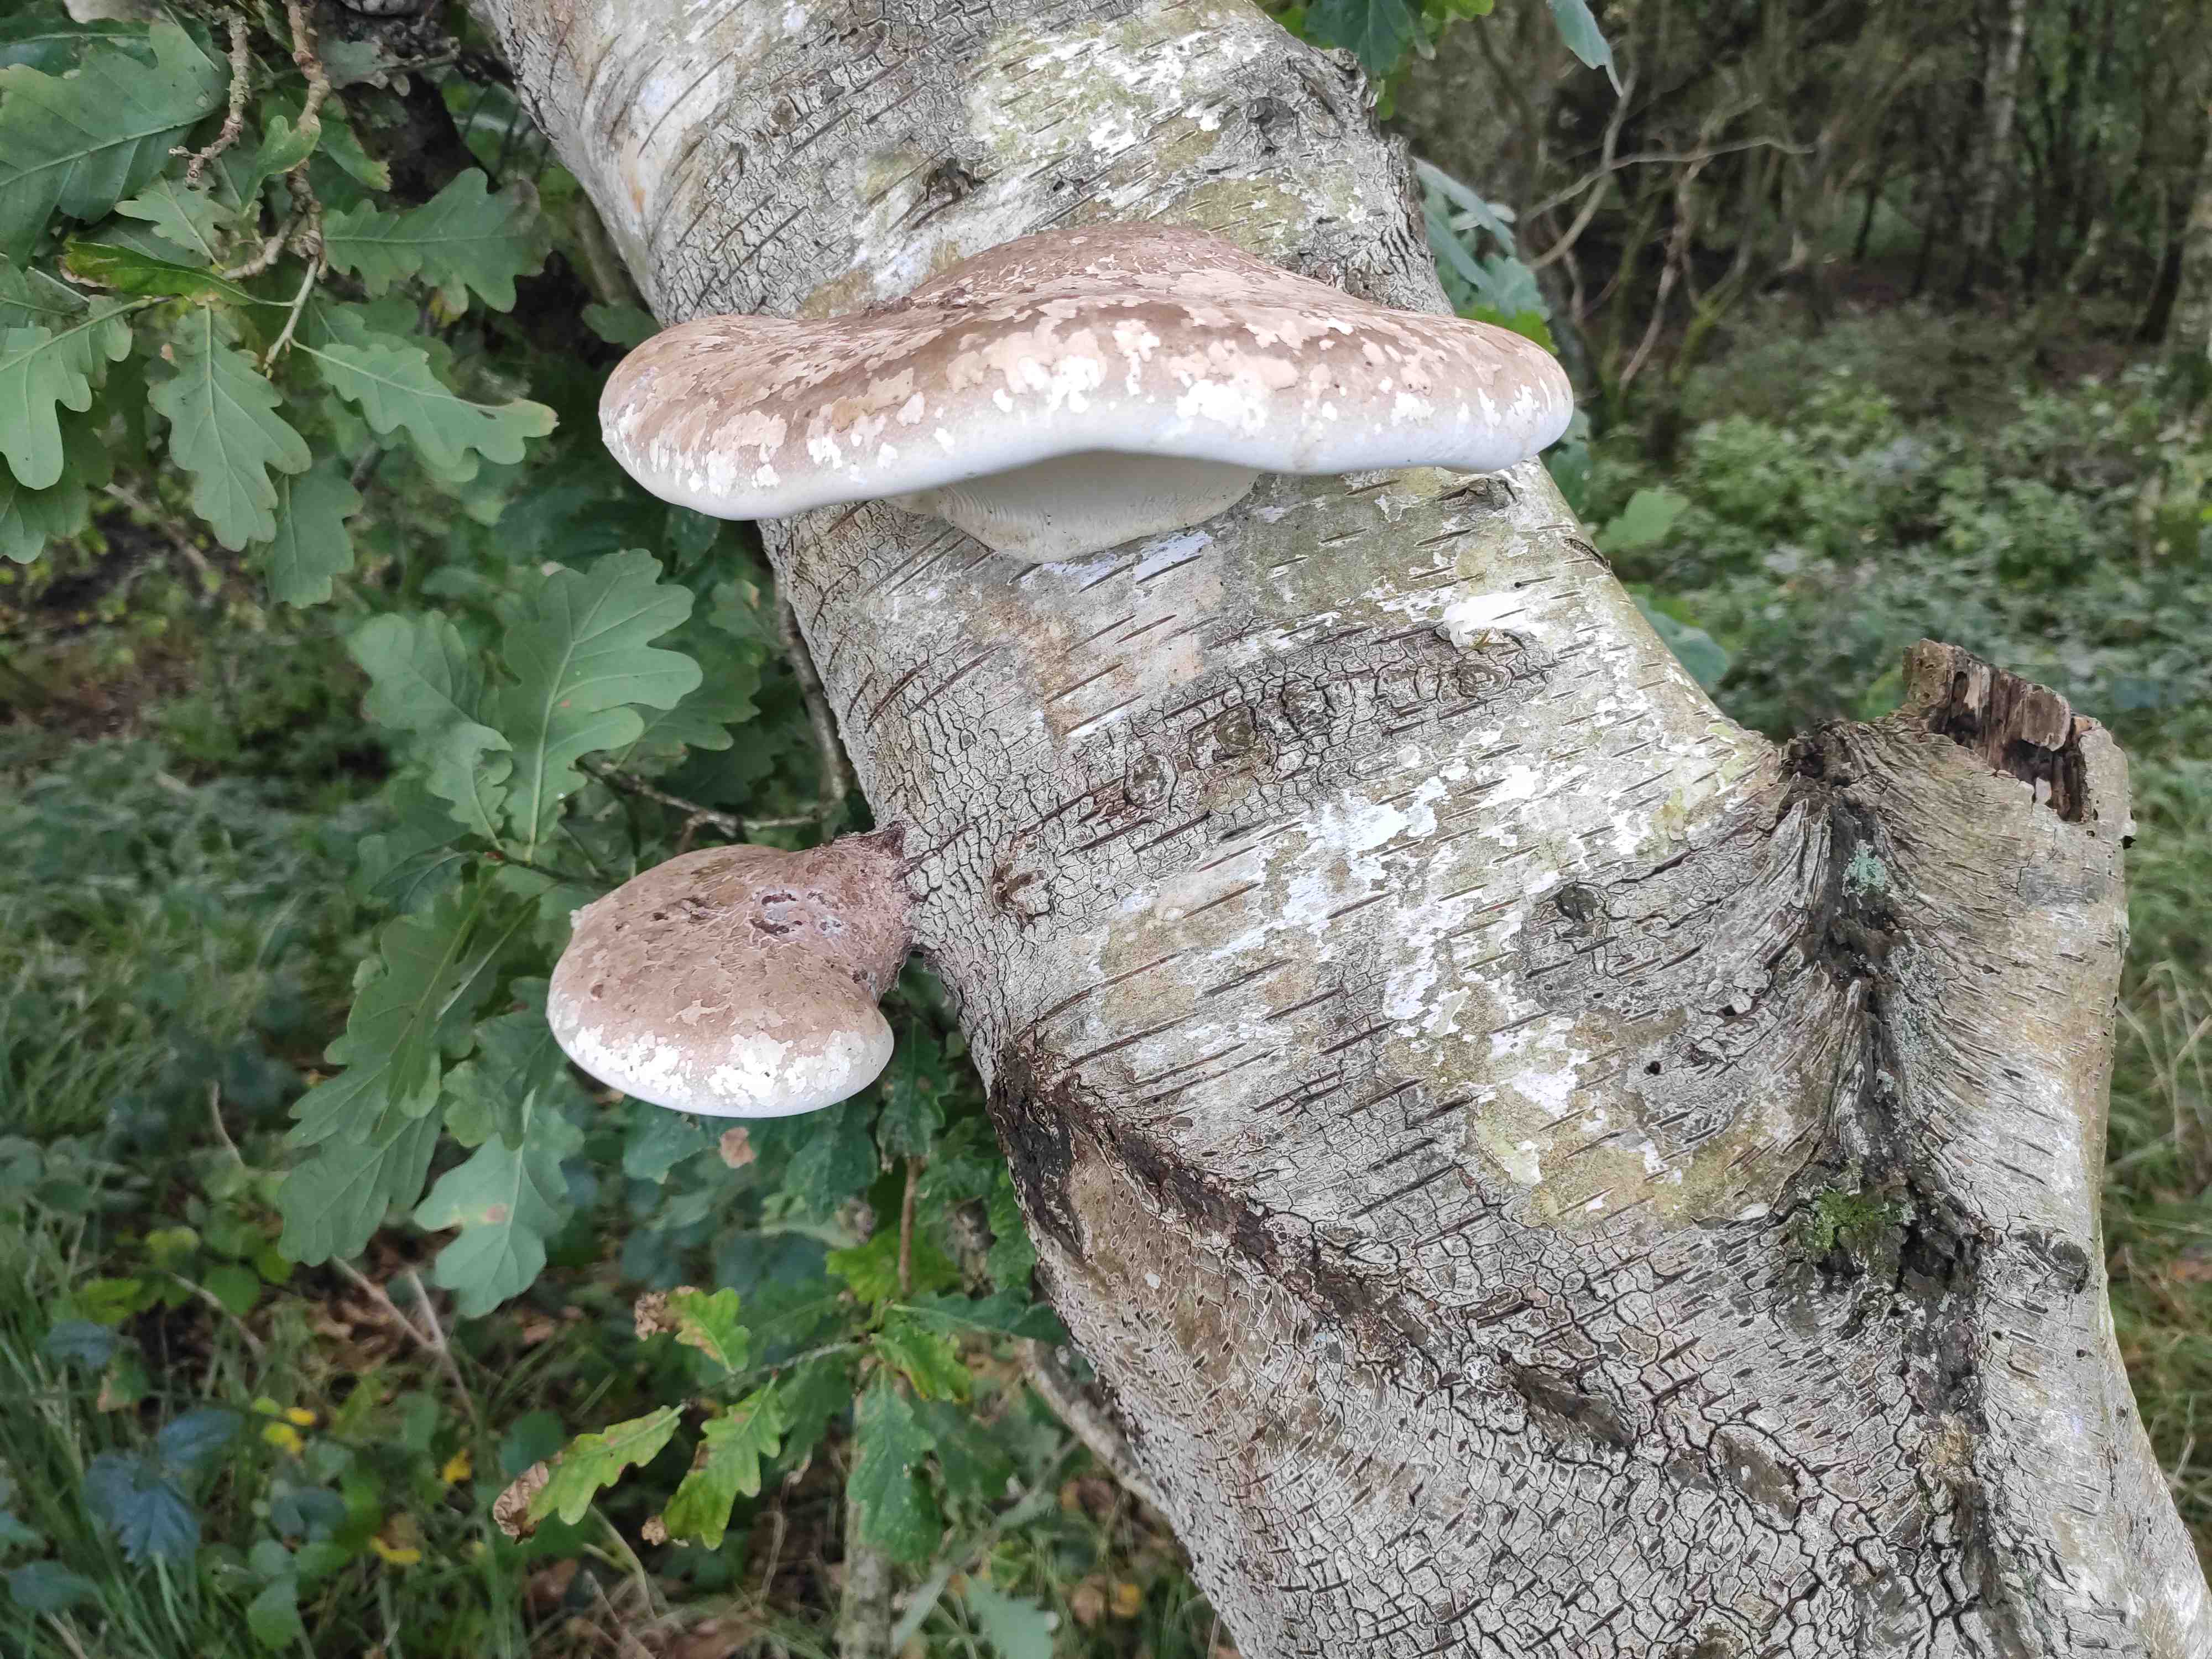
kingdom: Fungi
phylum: Basidiomycota
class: Agaricomycetes
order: Polyporales
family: Fomitopsidaceae
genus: Fomitopsis
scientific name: Fomitopsis betulina
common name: birkeporesvamp
